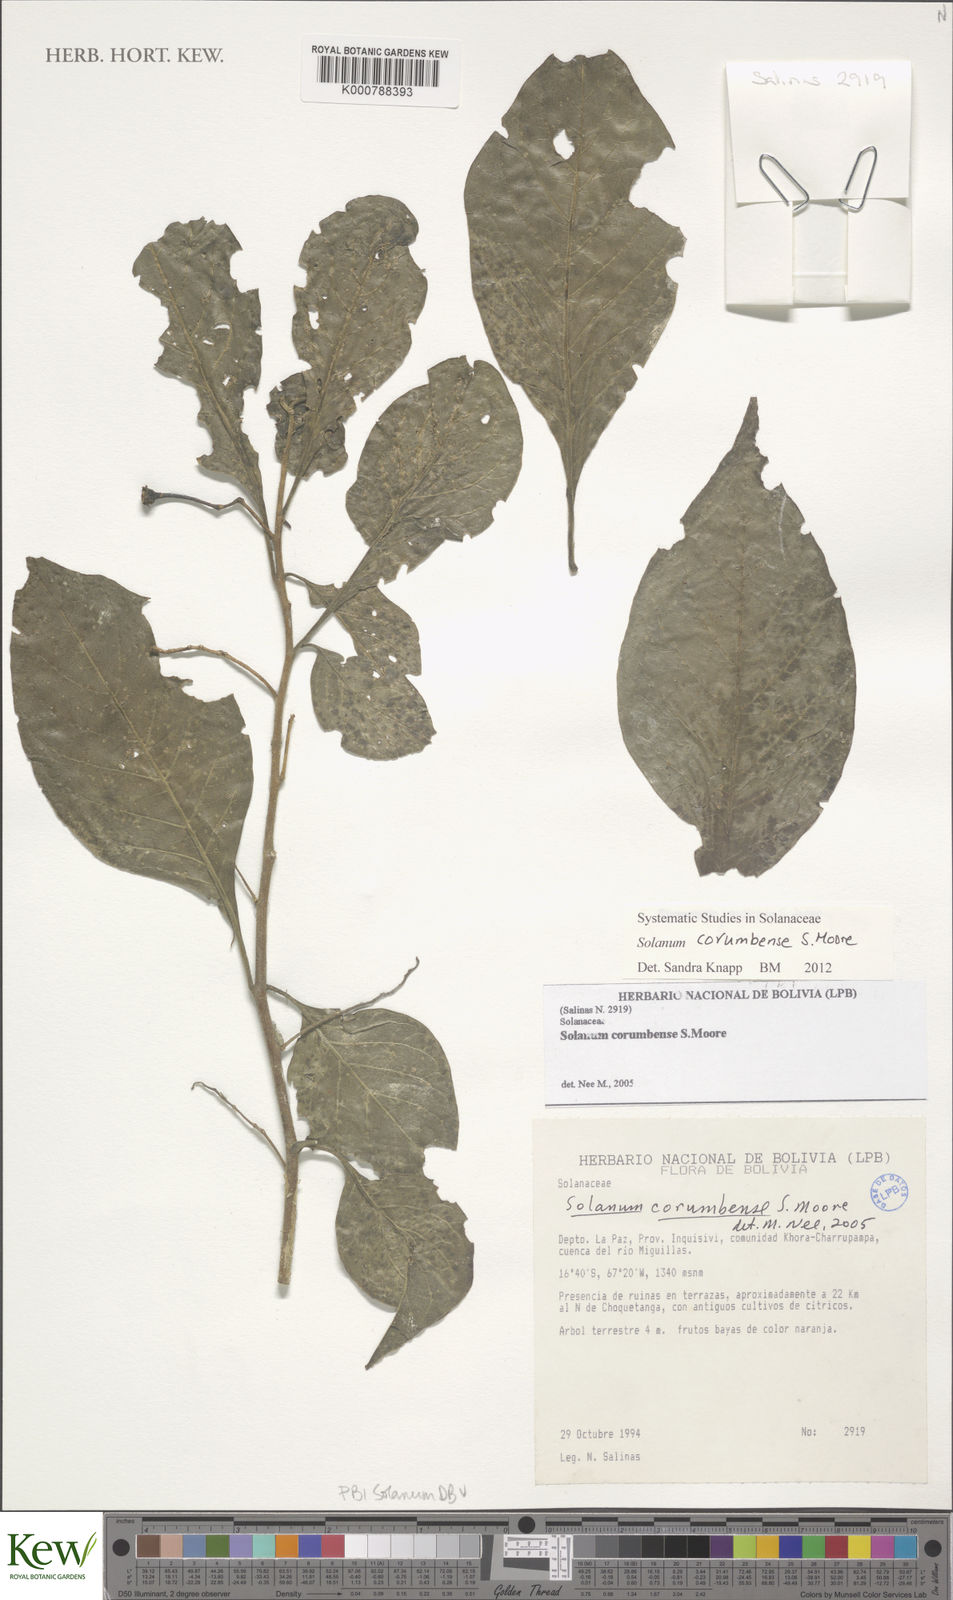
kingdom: Plantae
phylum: Tracheophyta
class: Magnoliopsida
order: Solanales
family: Solanaceae
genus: Solanum
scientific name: Solanum corumbense
